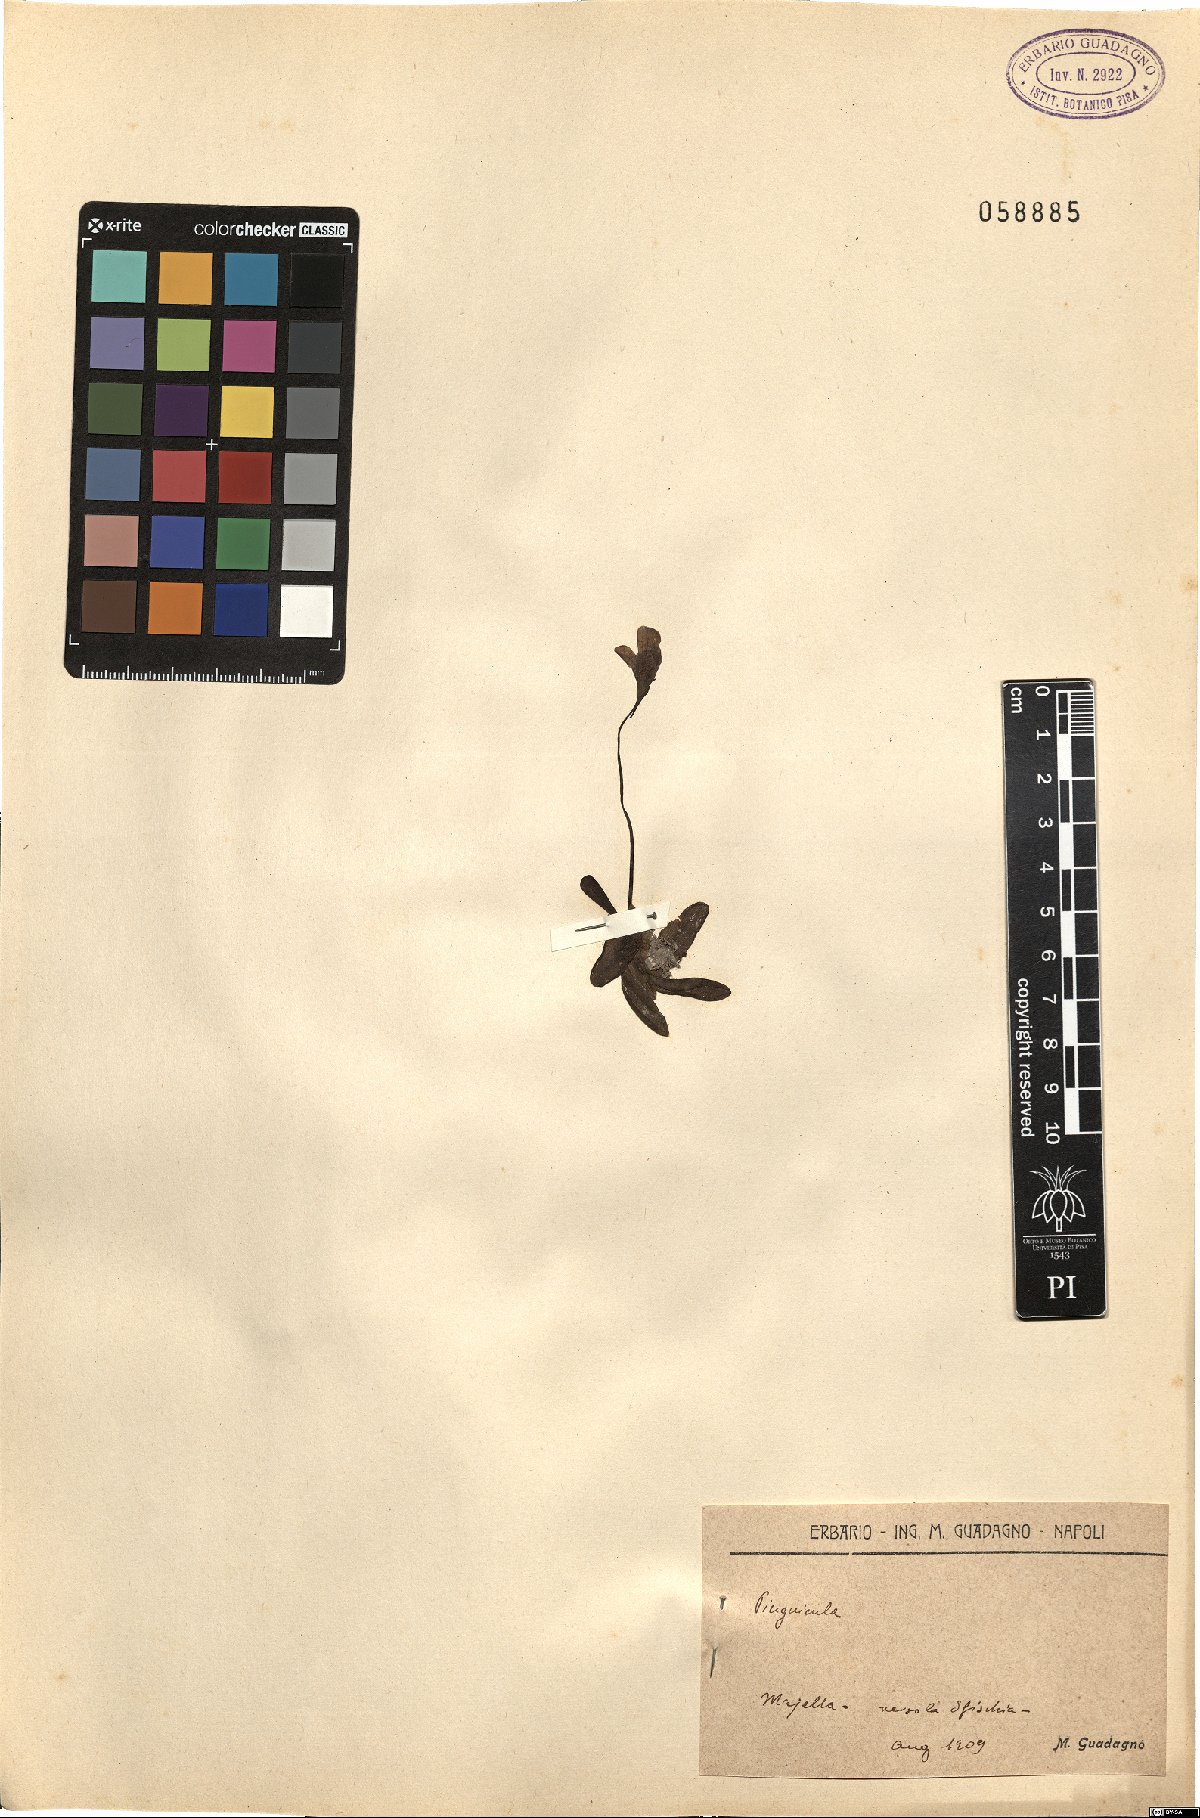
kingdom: Plantae
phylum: Tracheophyta
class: Magnoliopsida
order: Lamiales
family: Lentibulariaceae
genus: Pinguicula
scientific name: Pinguicula
